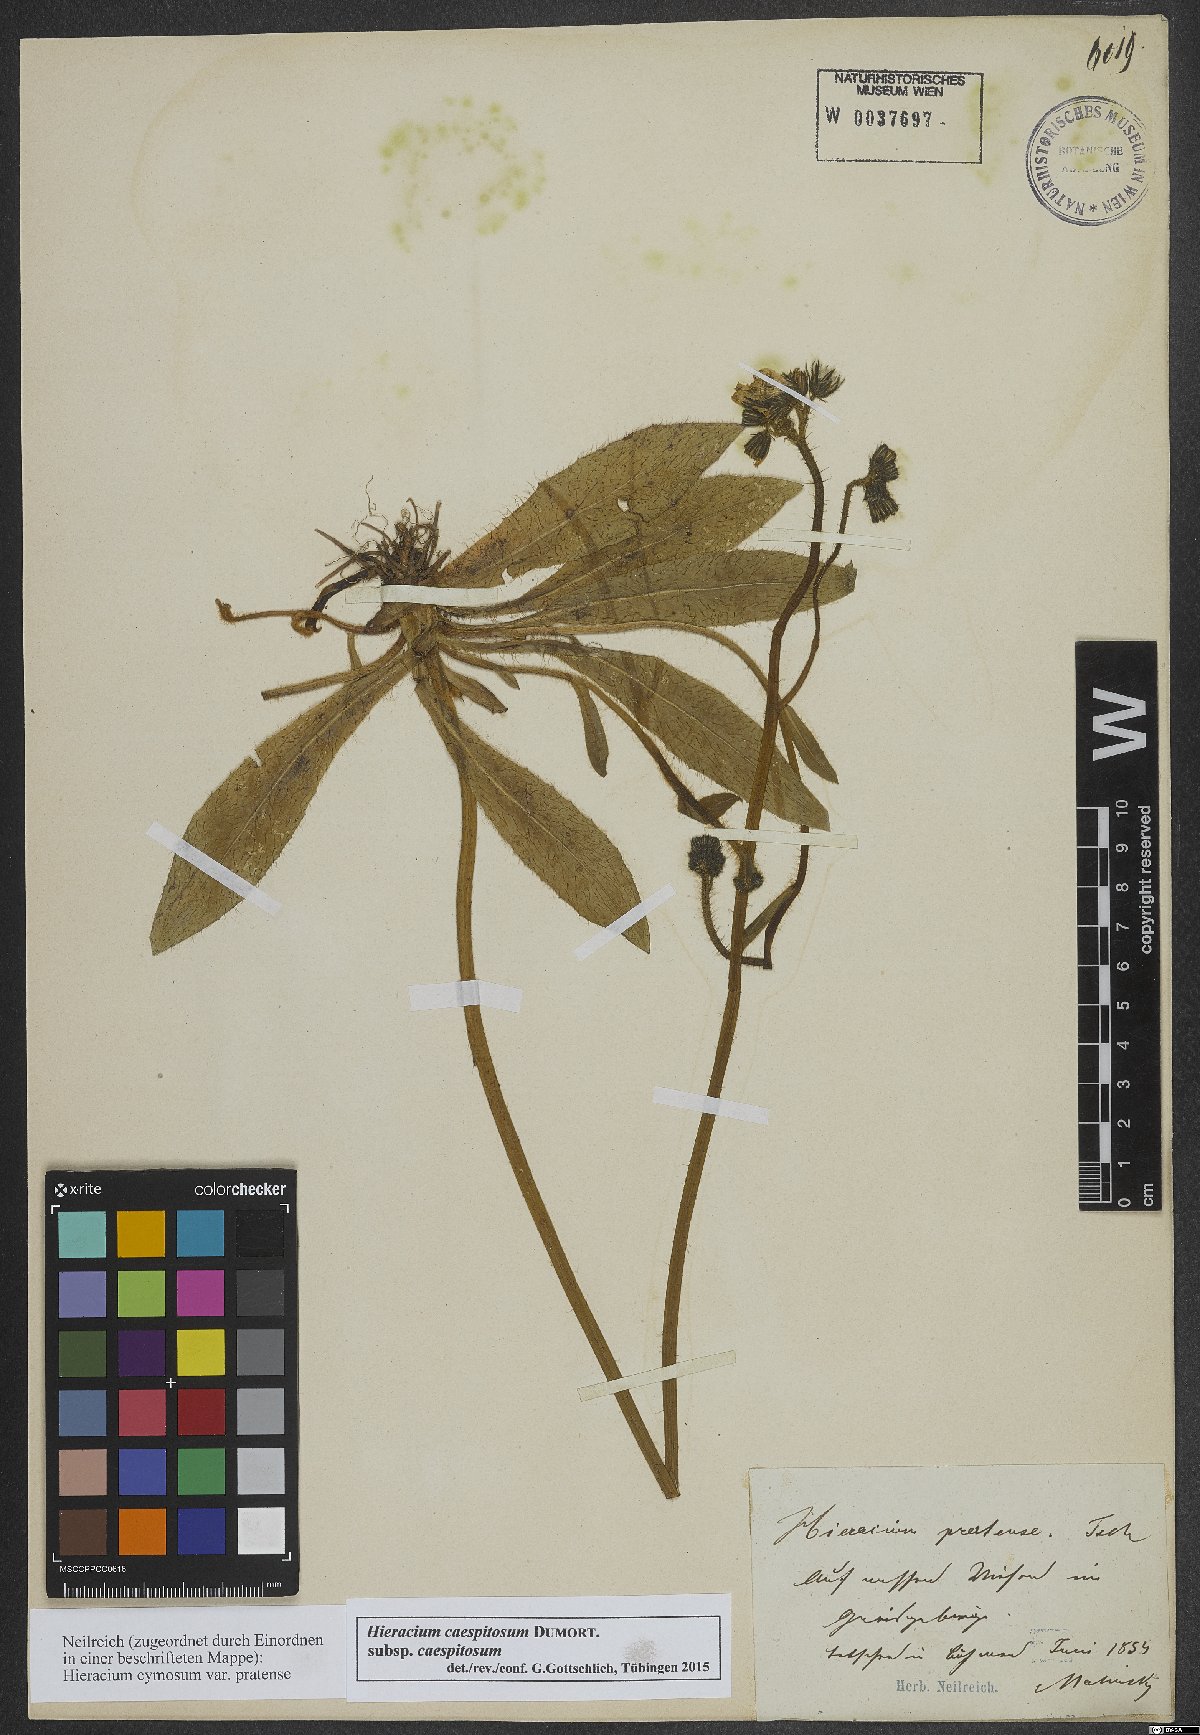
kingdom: Plantae
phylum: Tracheophyta
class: Magnoliopsida
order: Asterales
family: Asteraceae
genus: Pilosella
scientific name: Pilosella caespitosa
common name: Yellow fox-and-cubs
